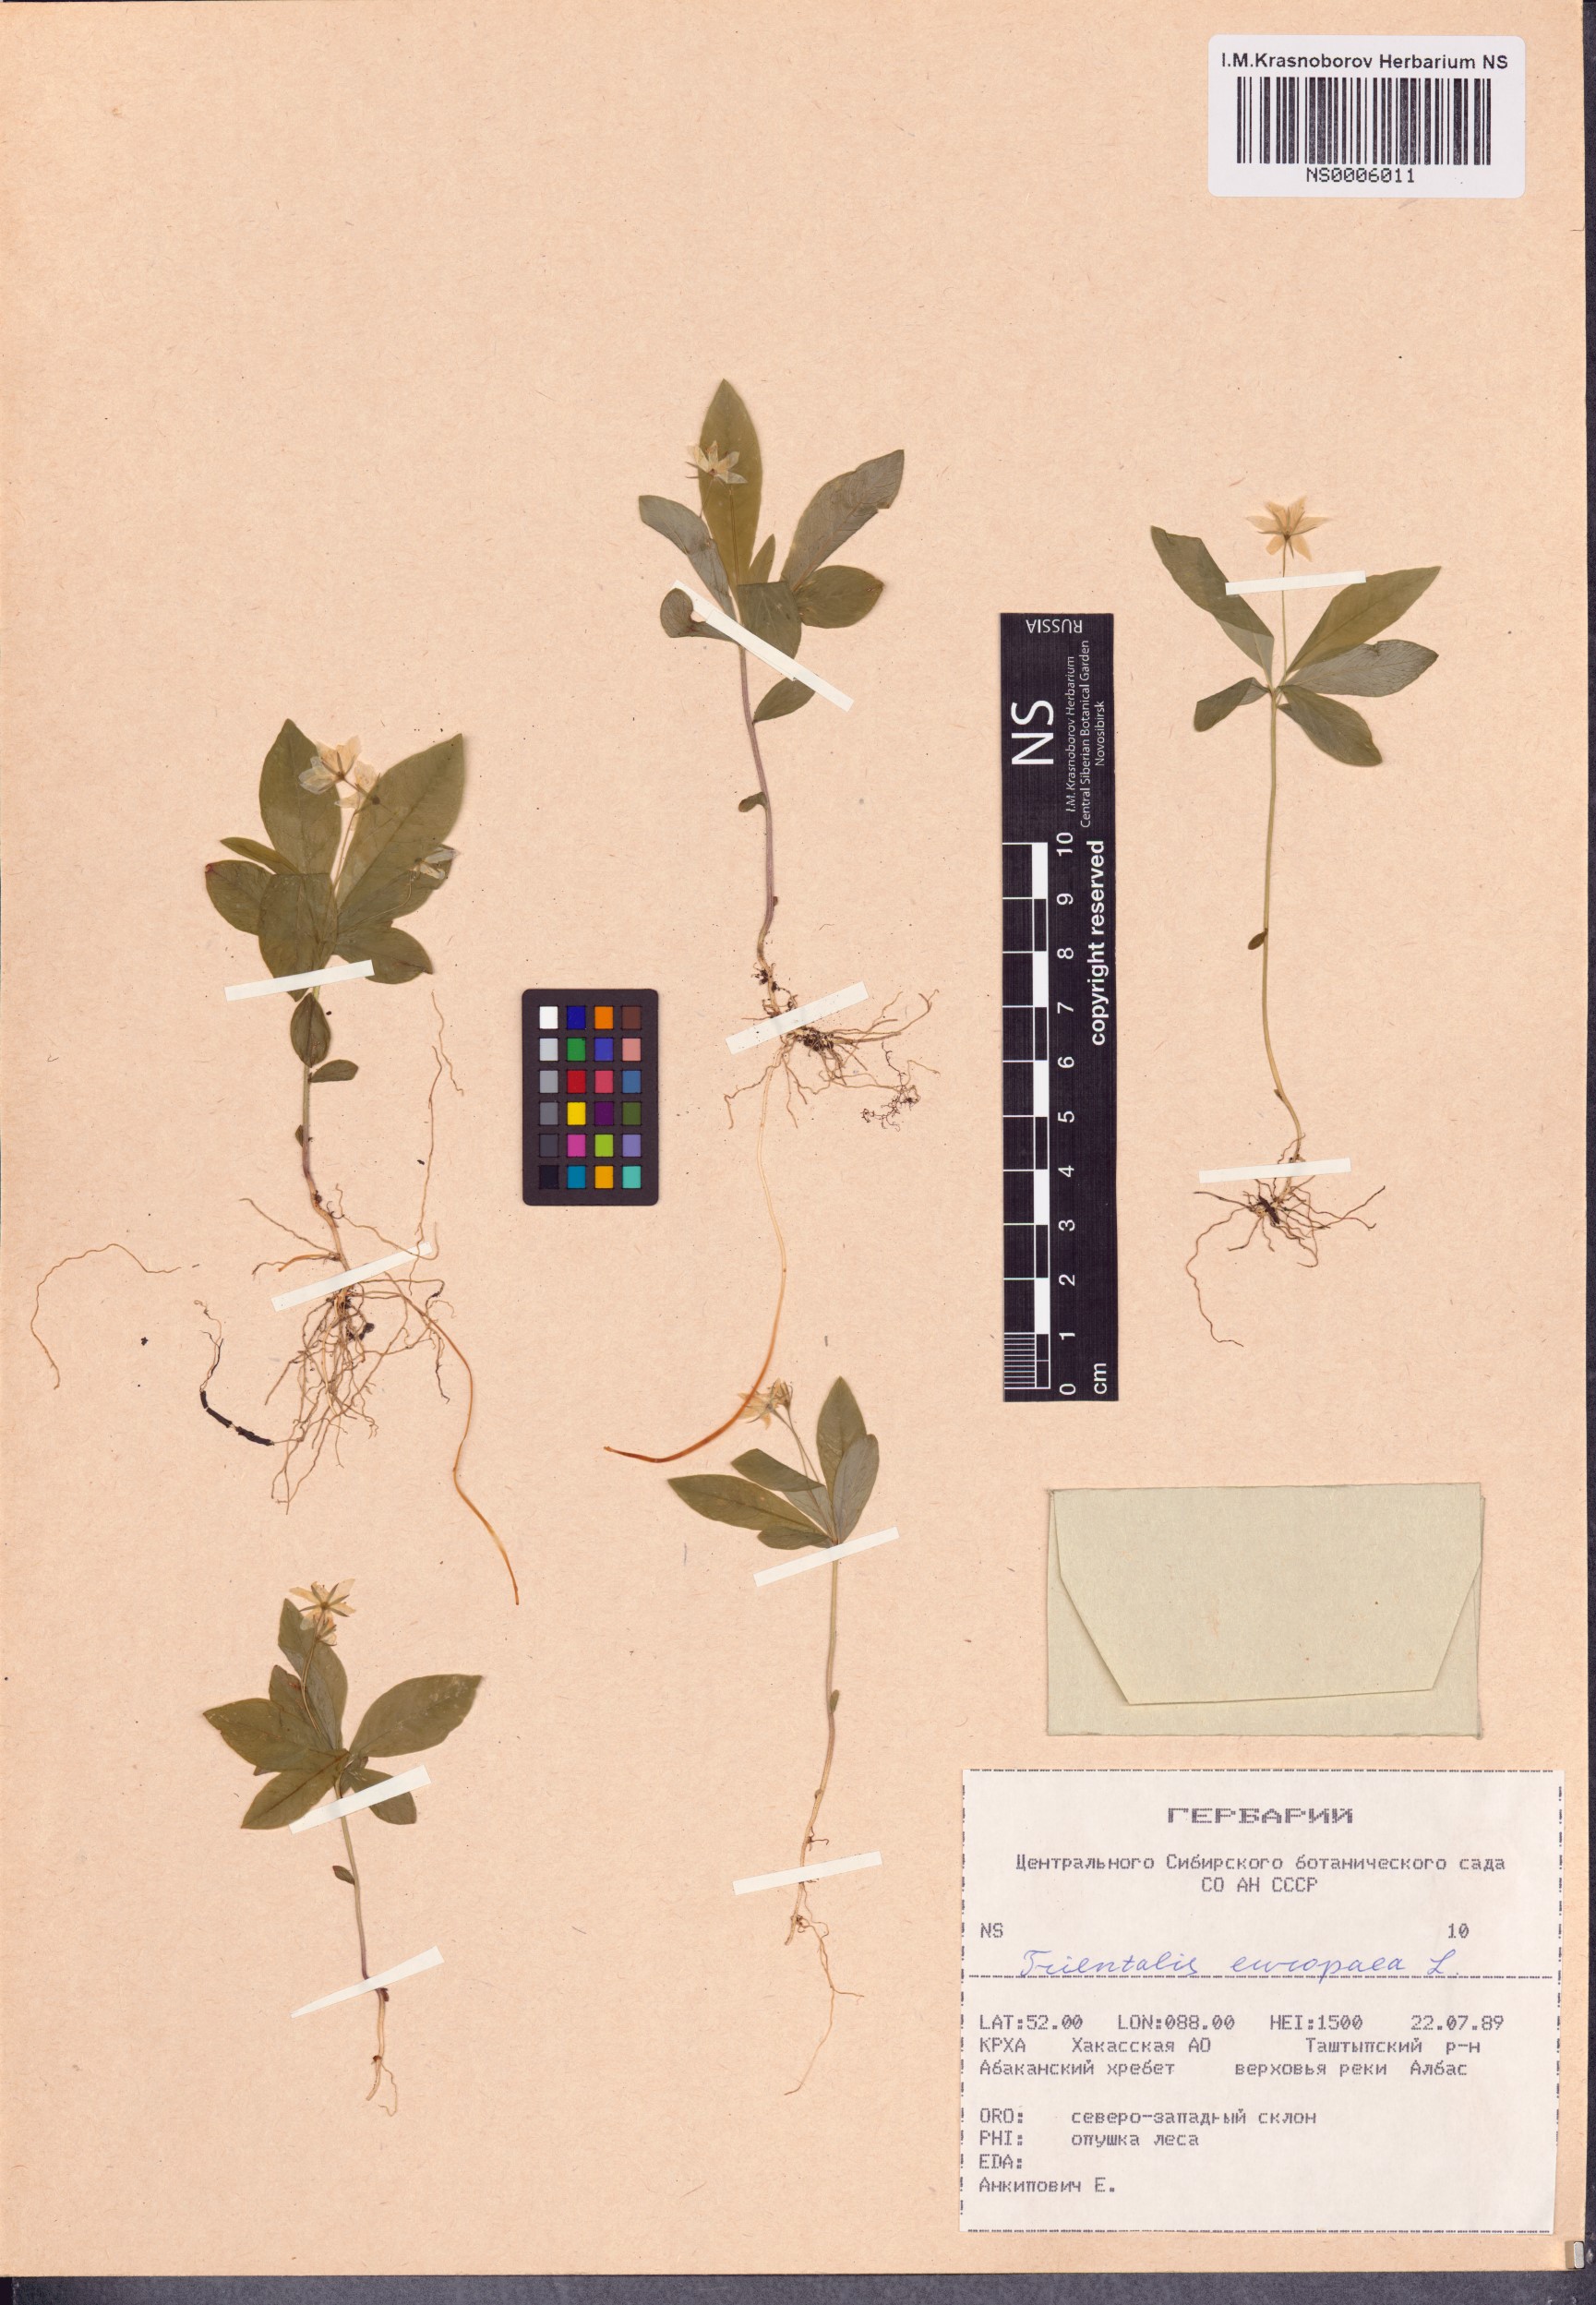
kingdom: Plantae
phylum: Tracheophyta
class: Magnoliopsida
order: Ericales
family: Primulaceae
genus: Lysimachia
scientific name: Lysimachia europaea
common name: Arctic starflower
